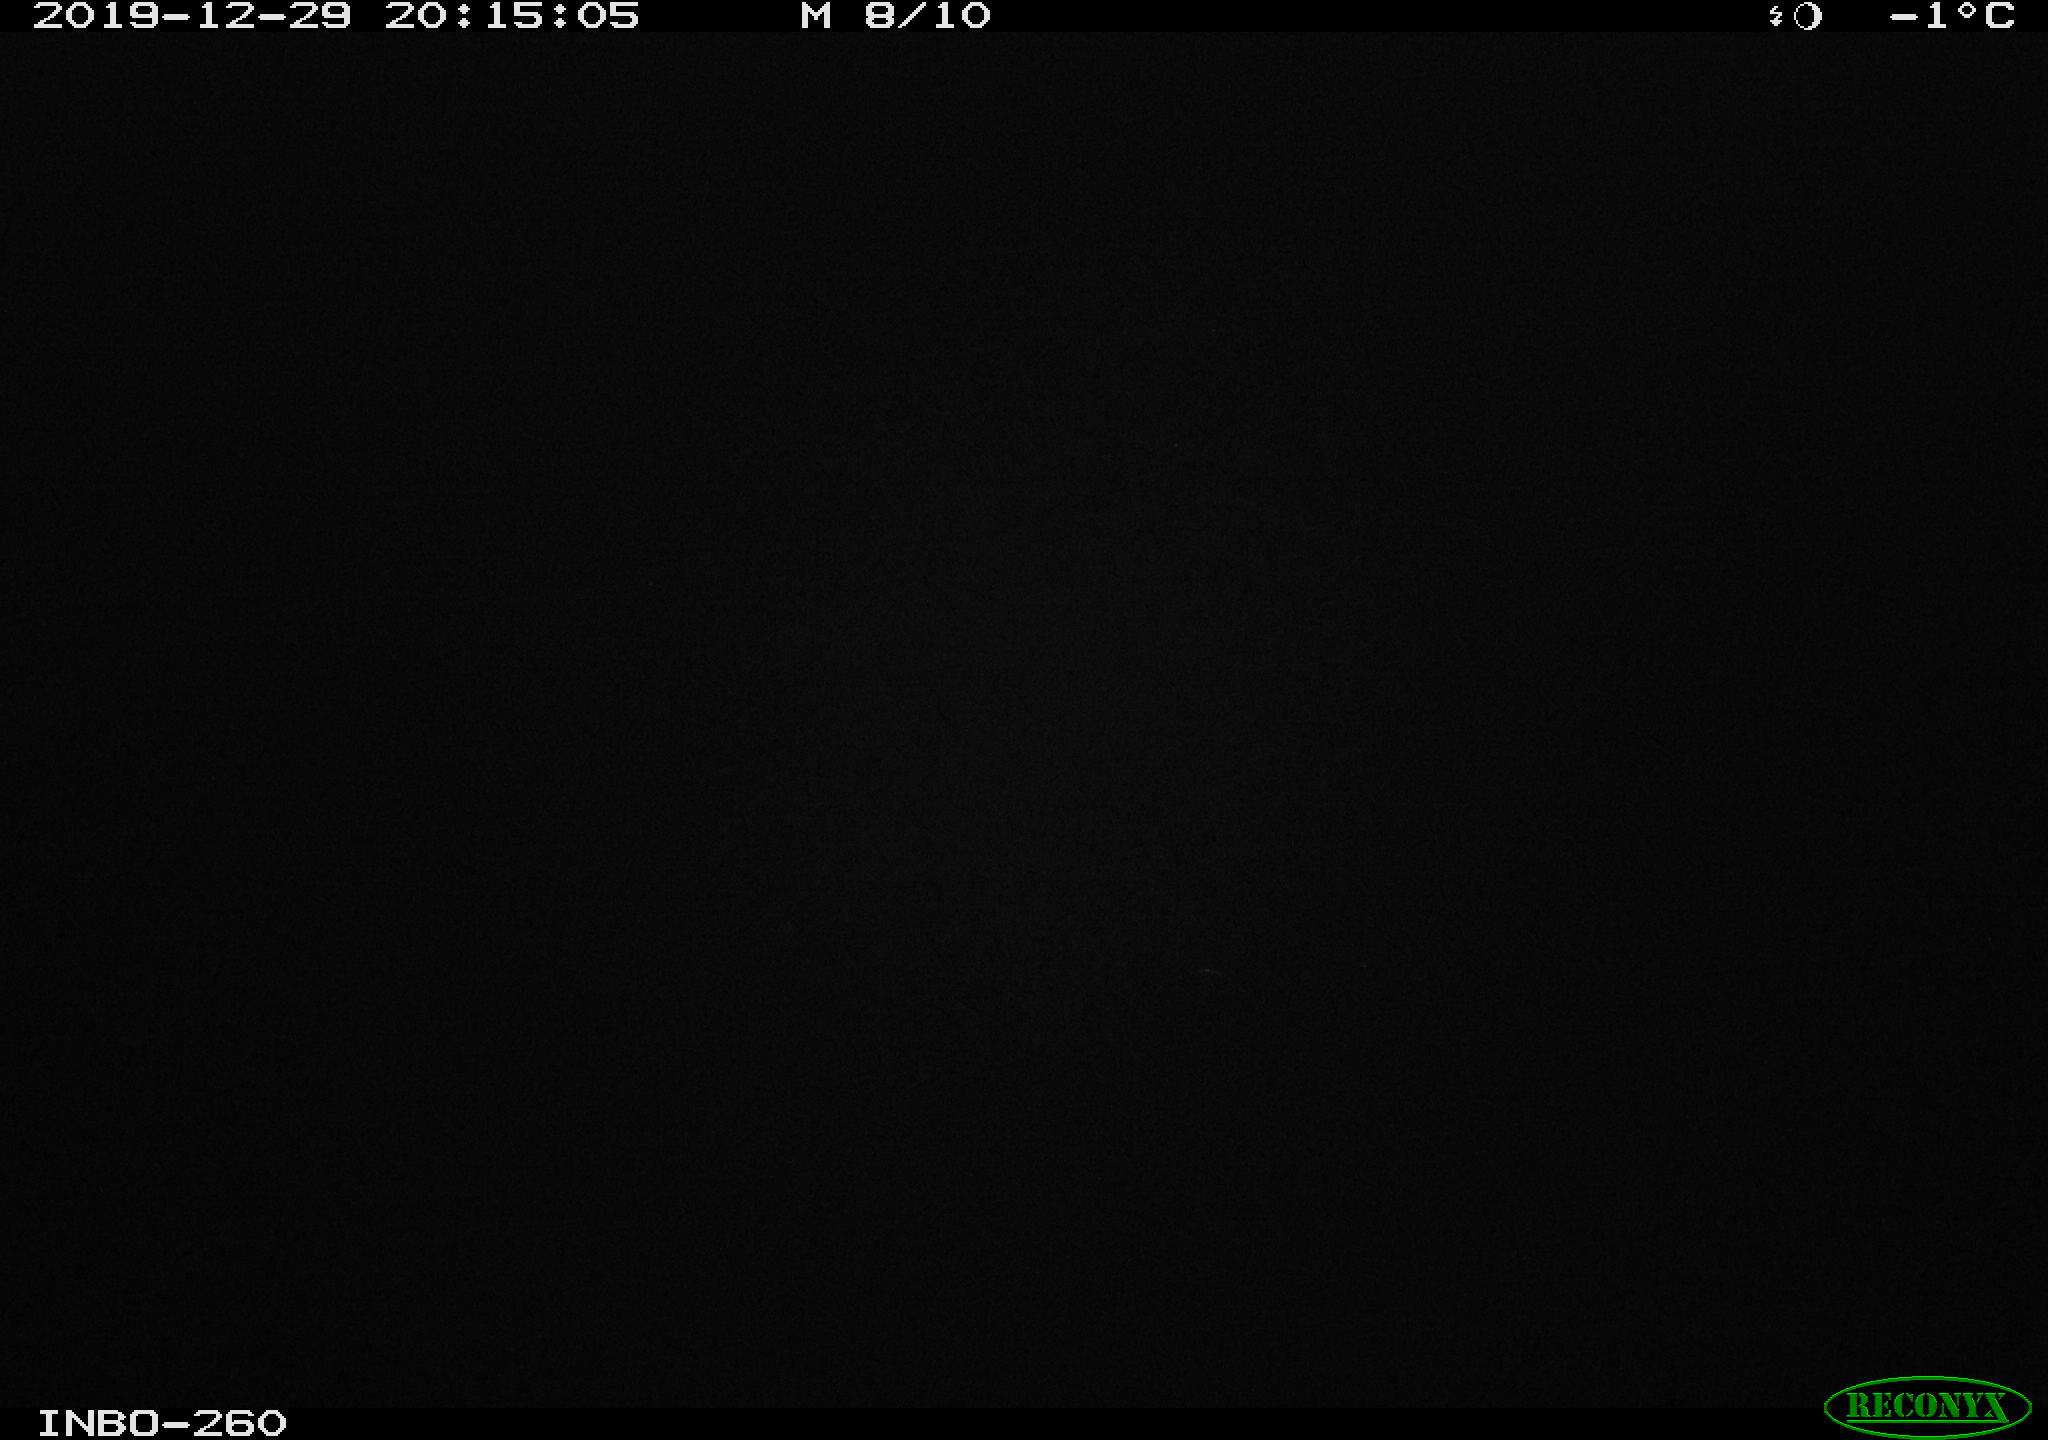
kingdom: Animalia
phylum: Chordata
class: Aves
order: Anseriformes
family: Anatidae
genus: Anas
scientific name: Anas platyrhynchos
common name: Mallard
